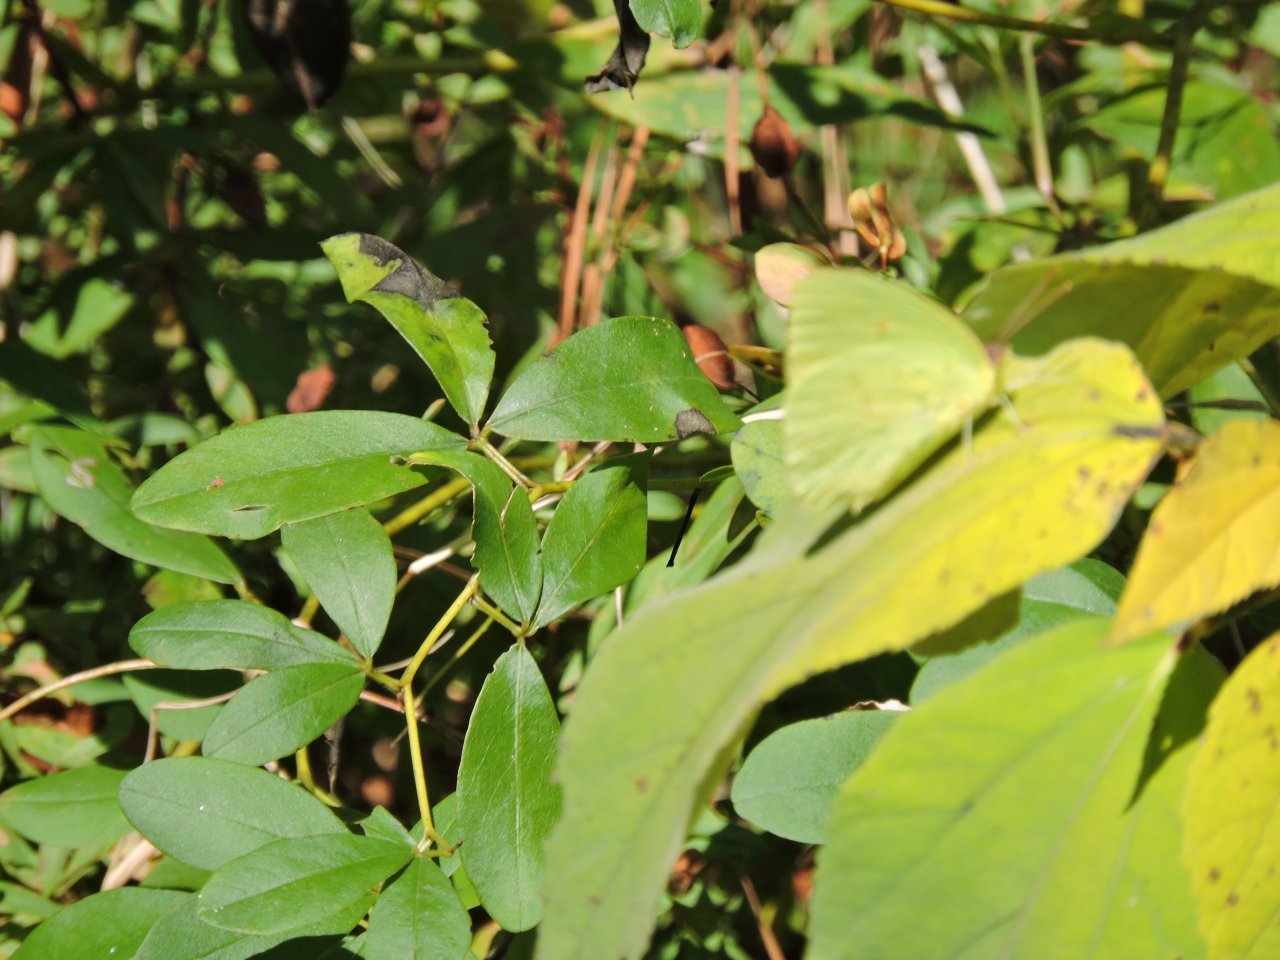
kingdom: Animalia
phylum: Arthropoda
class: Insecta
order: Lepidoptera
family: Pieridae
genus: Phoebis
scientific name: Phoebis sennae
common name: Cloudless Sulphur
